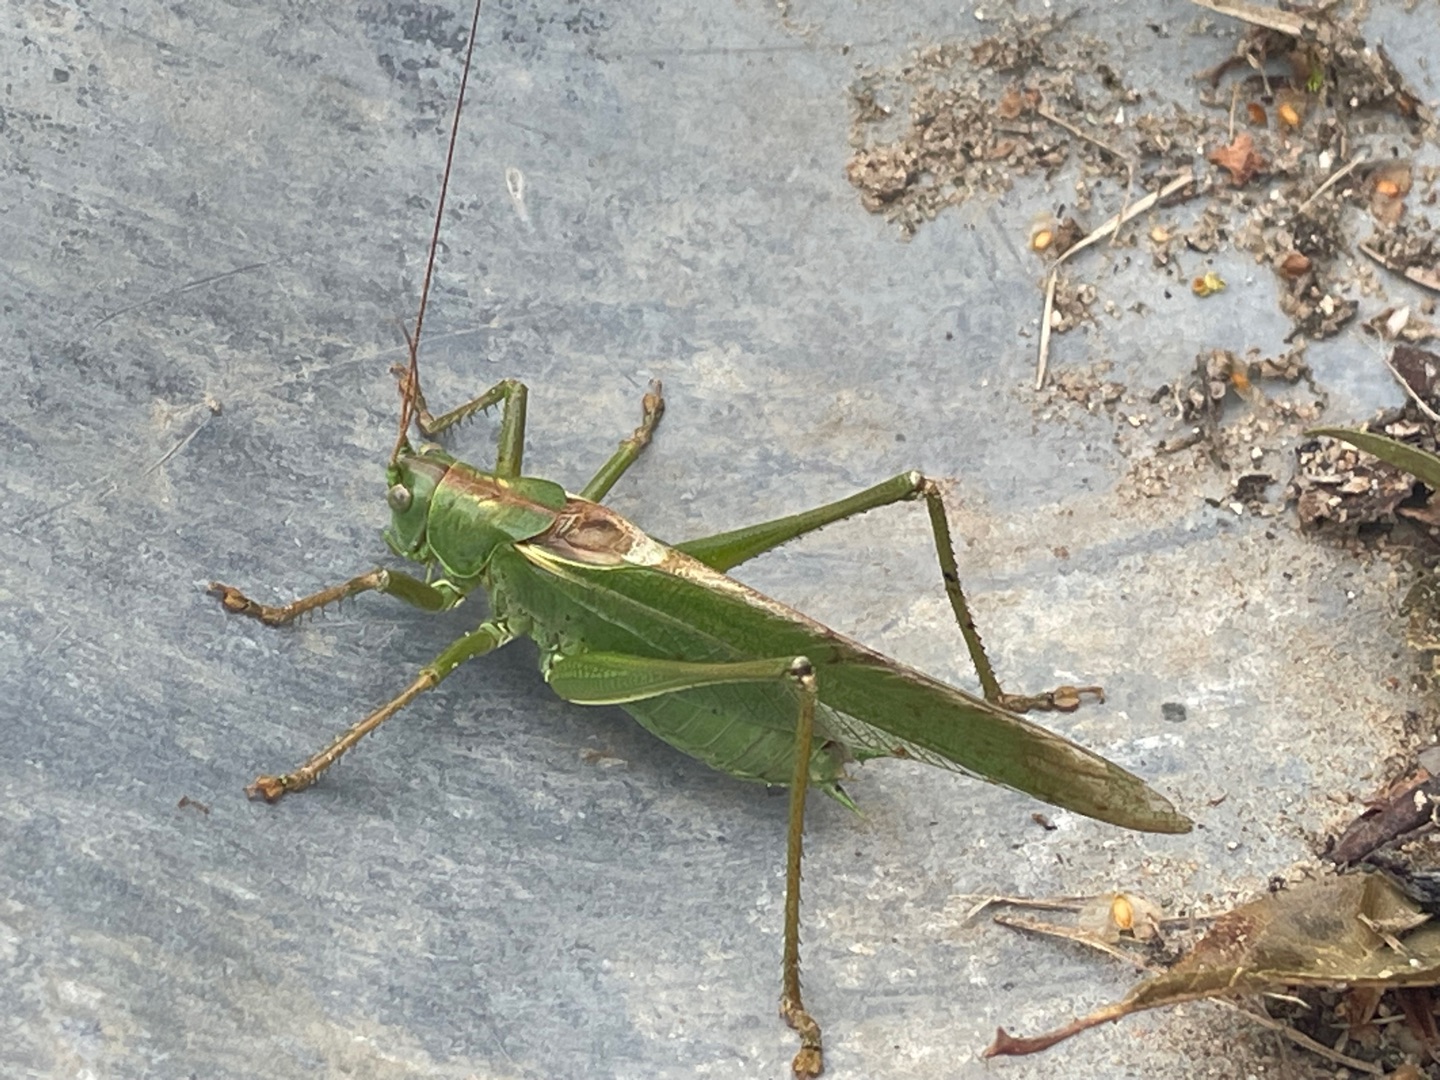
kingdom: Animalia
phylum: Arthropoda
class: Insecta
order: Orthoptera
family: Tettigoniidae
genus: Tettigonia
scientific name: Tettigonia viridissima
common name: Stor grøn løvgræshoppe
